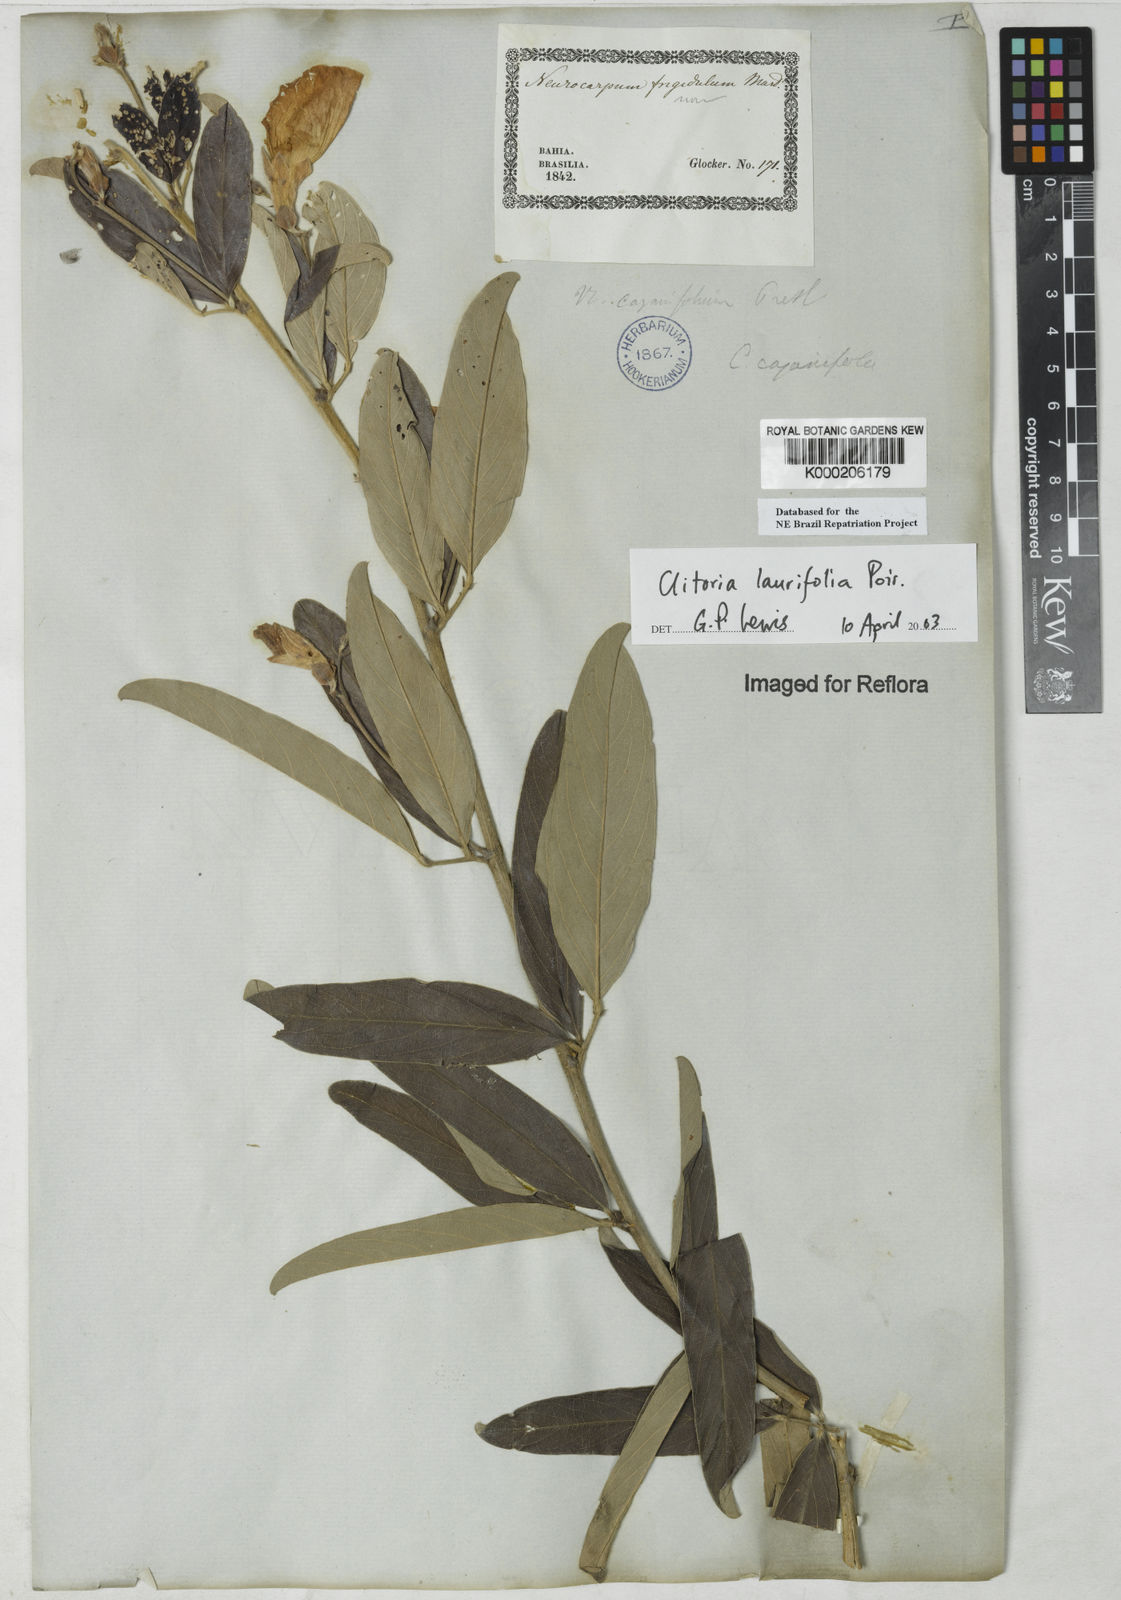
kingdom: Plantae
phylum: Tracheophyta
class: Magnoliopsida
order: Fabales
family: Fabaceae
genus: Clitoria
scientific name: Clitoria laurifolia
